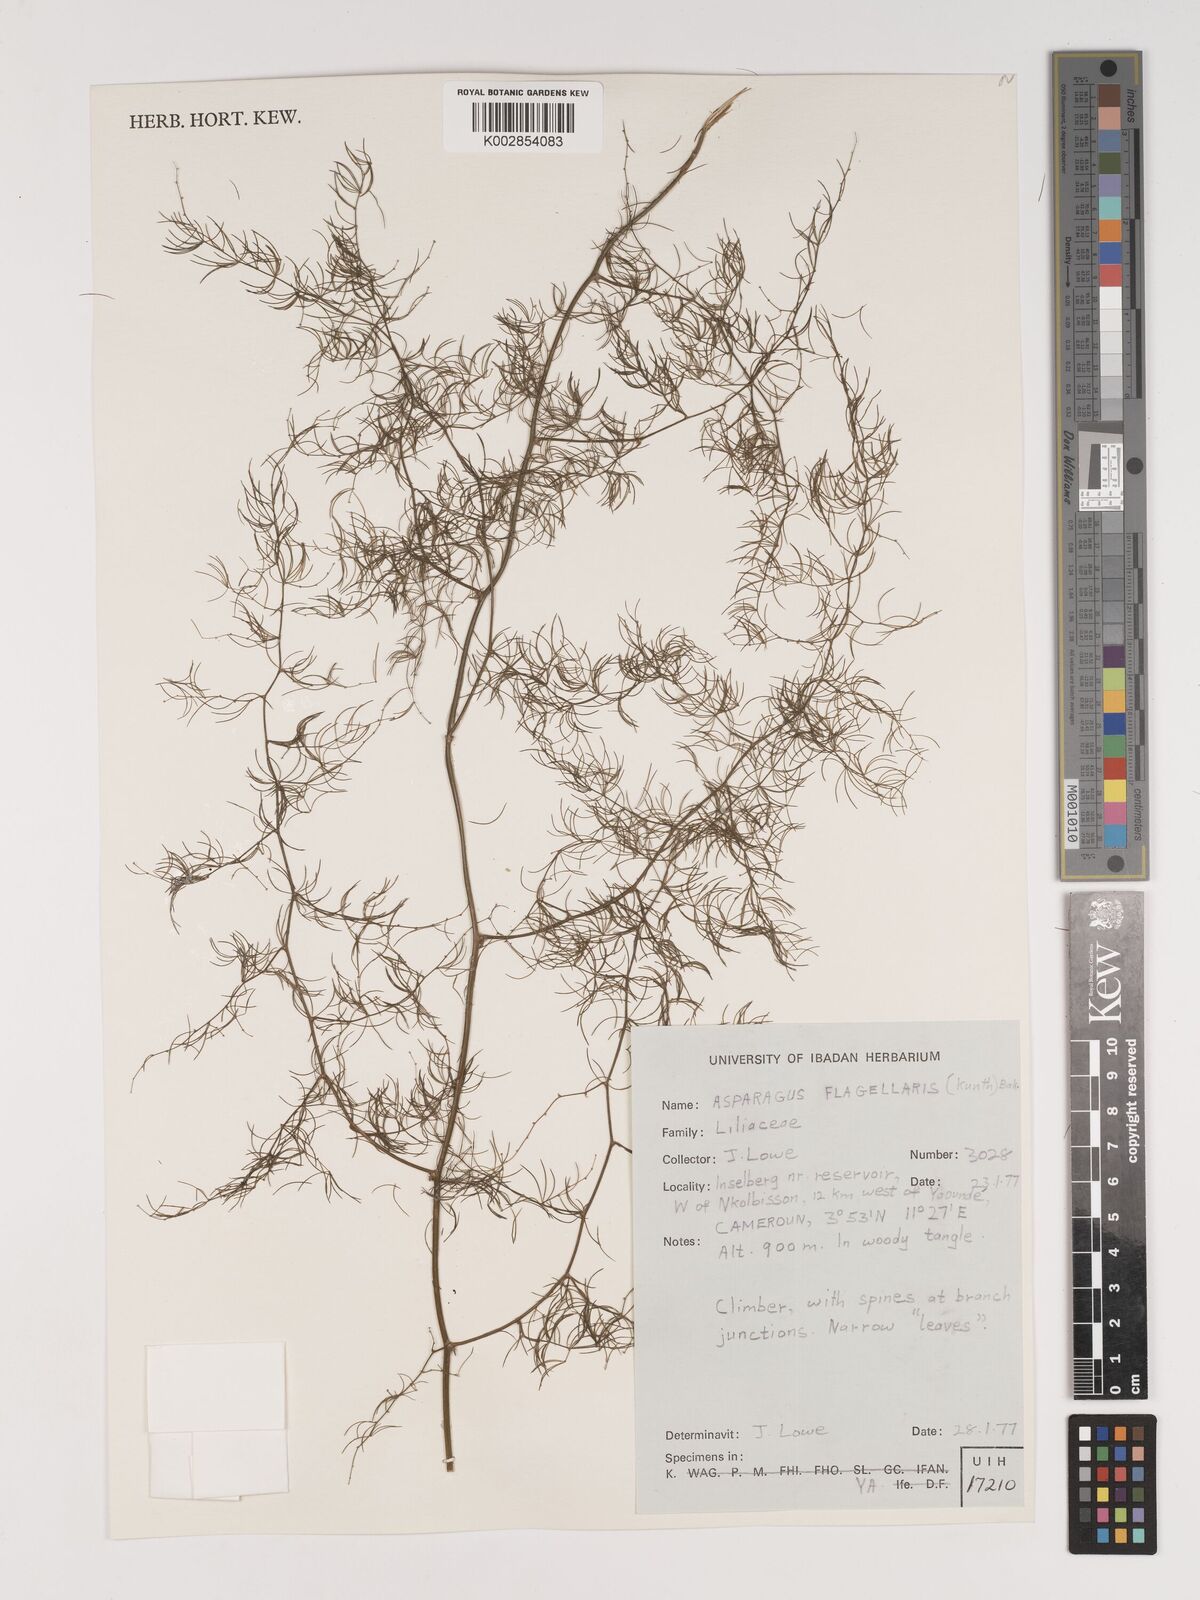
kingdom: Plantae
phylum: Tracheophyta
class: Liliopsida
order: Asparagales
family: Asparagaceae
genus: Asparagus
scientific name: Asparagus flagellaris
